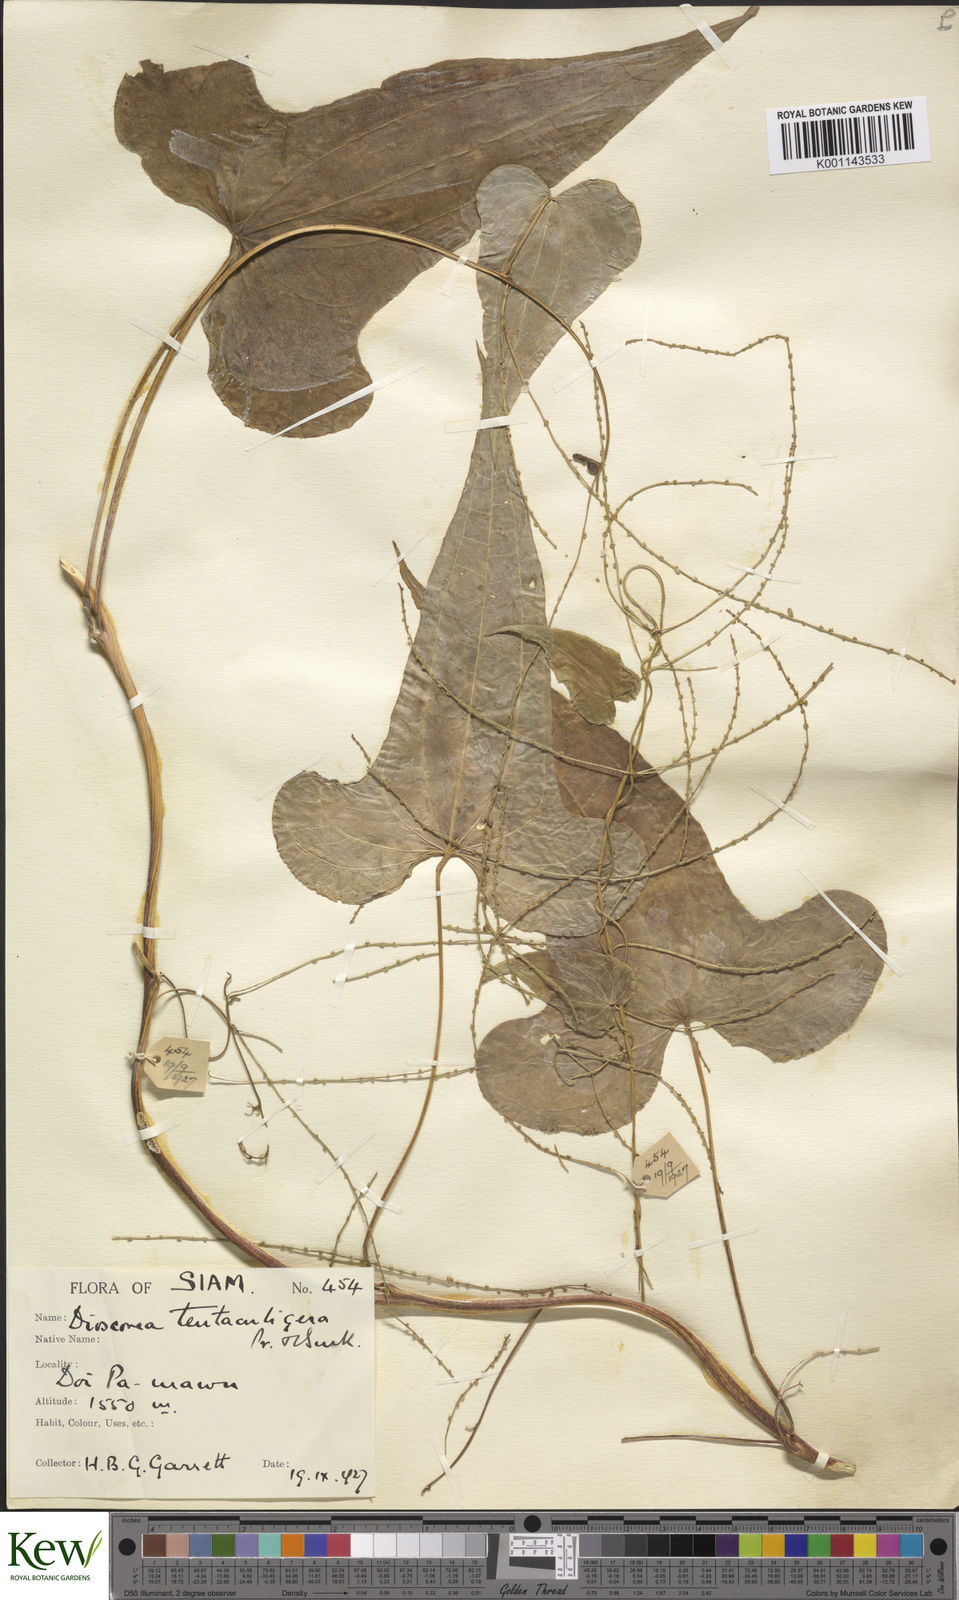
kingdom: Plantae
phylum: Tracheophyta
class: Liliopsida
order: Dioscoreales
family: Dioscoreaceae
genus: Dioscorea
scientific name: Dioscorea tentaculigera
